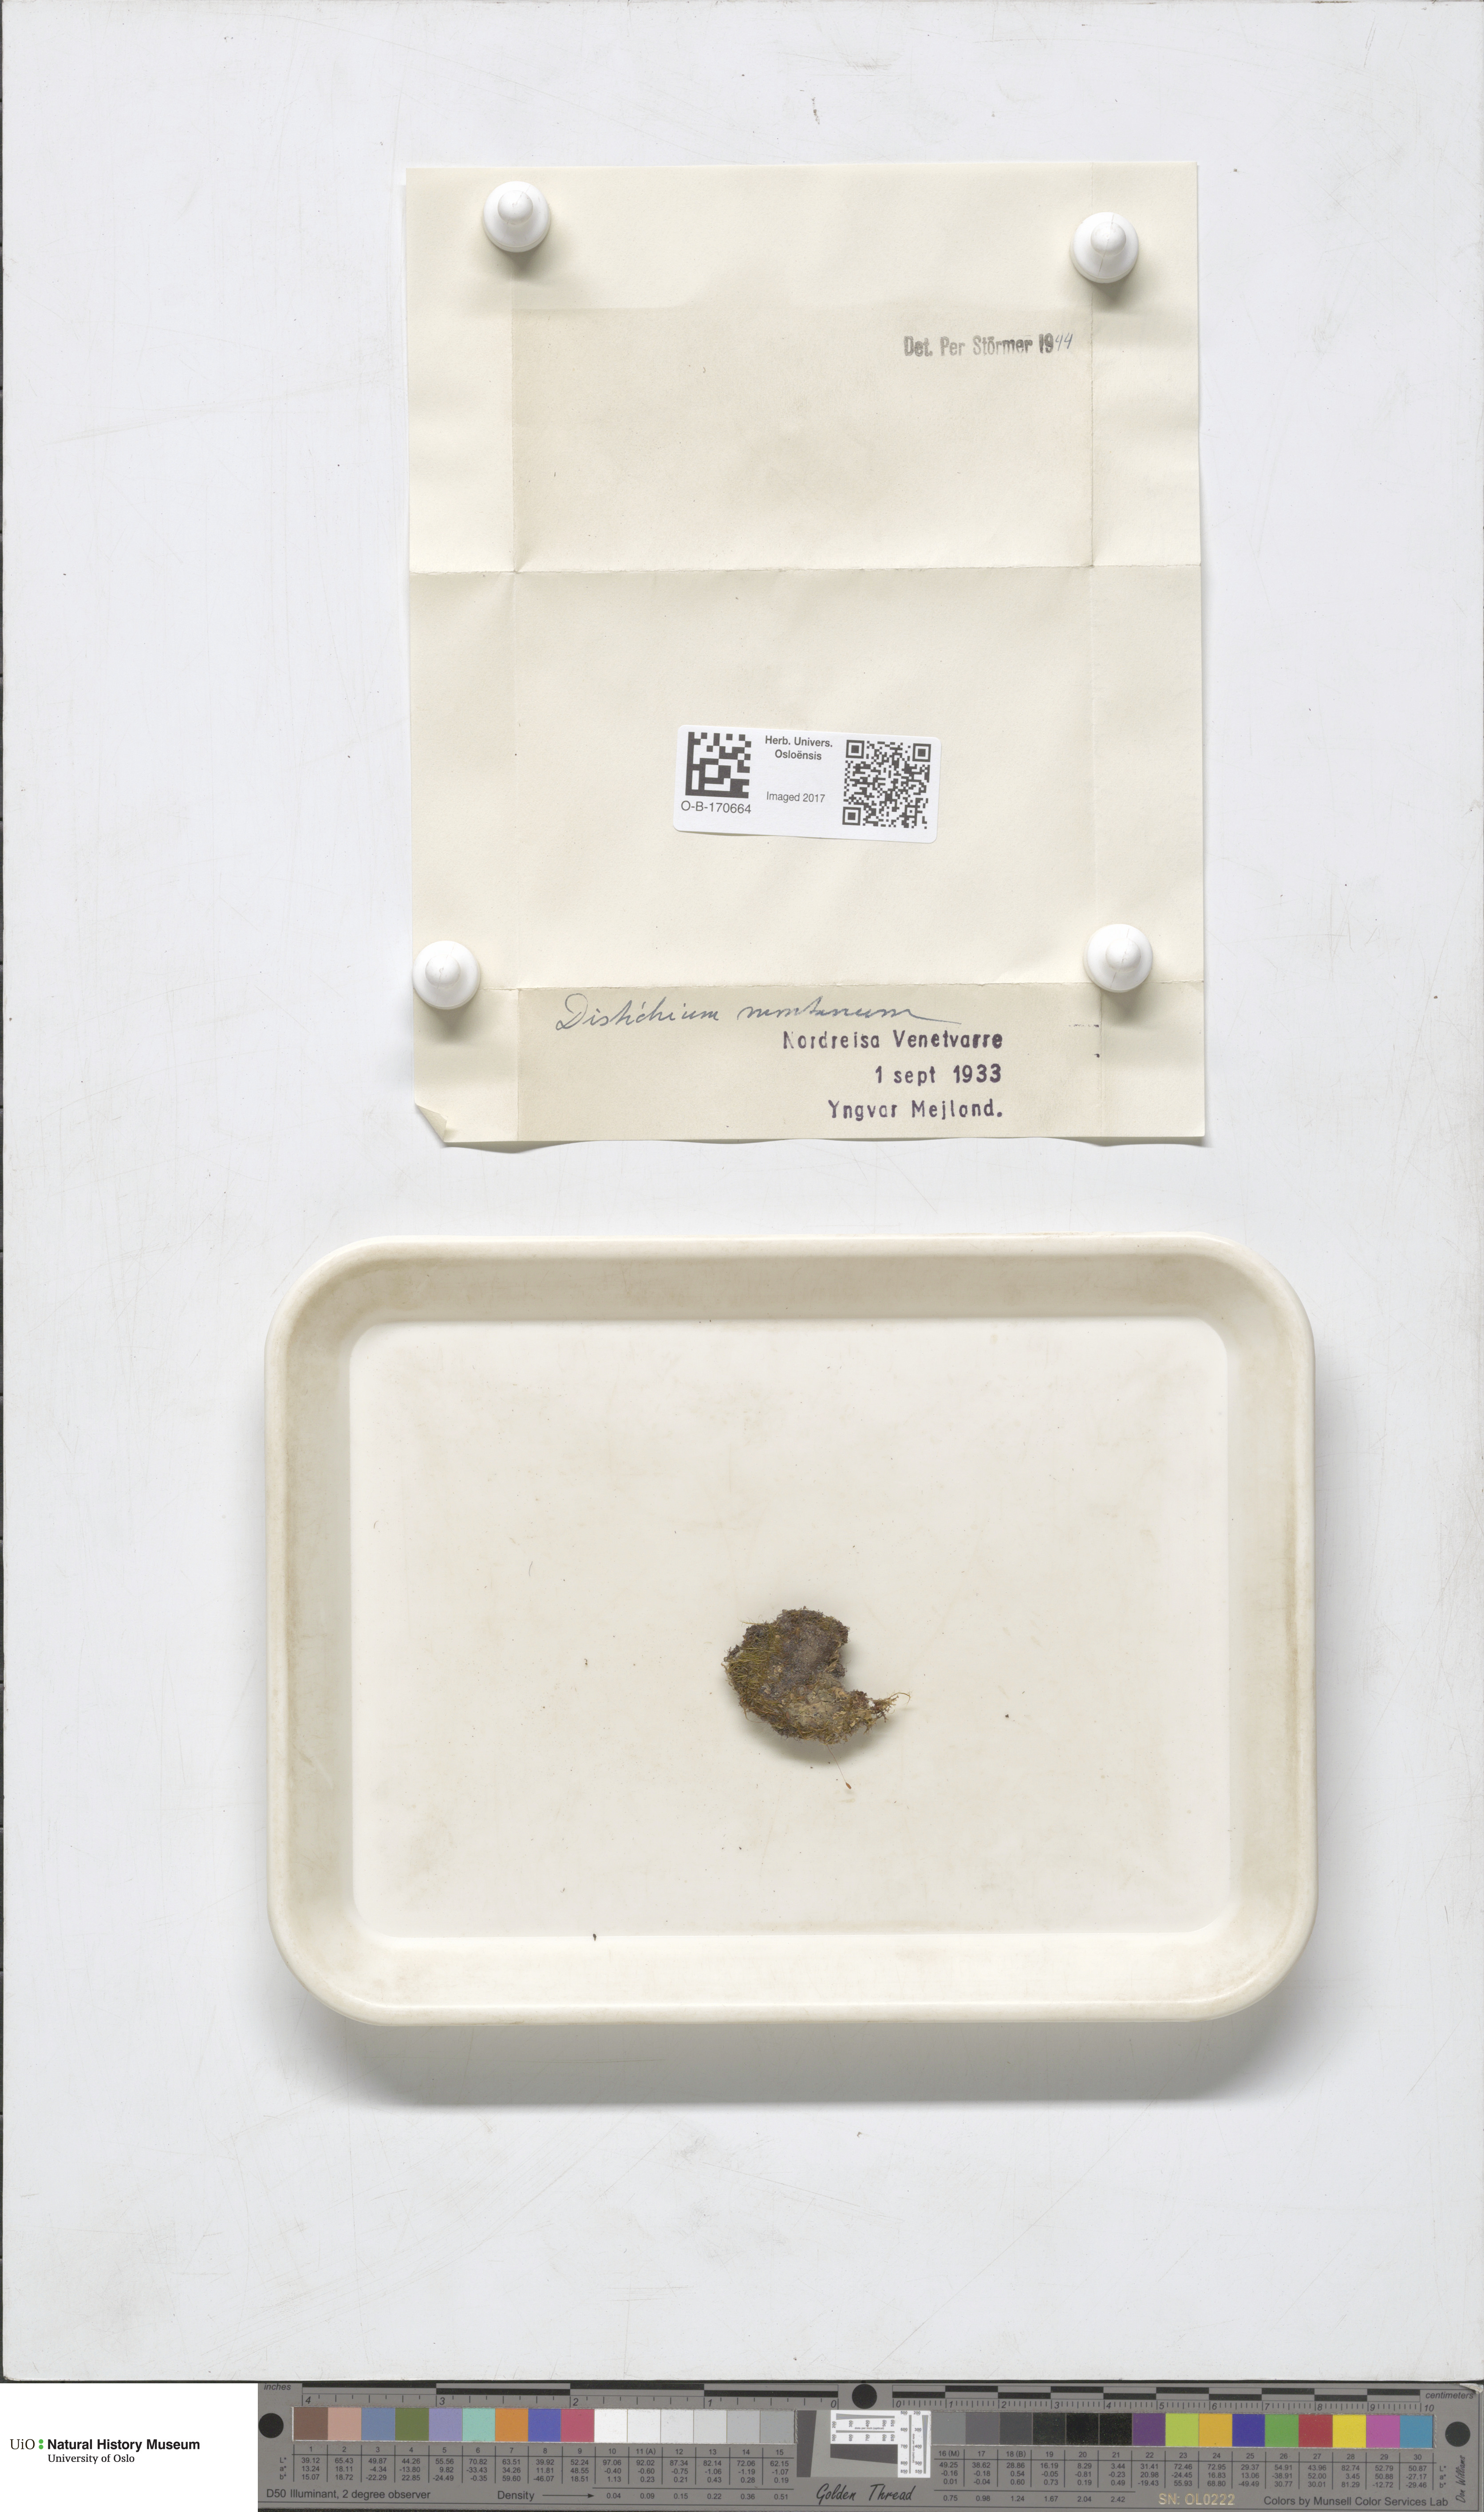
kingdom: Plantae
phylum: Bryophyta
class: Bryopsida
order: Scouleriales
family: Distichiaceae
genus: Distichium
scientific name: Distichium capillaceum
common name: Erect-fruited iris moss
